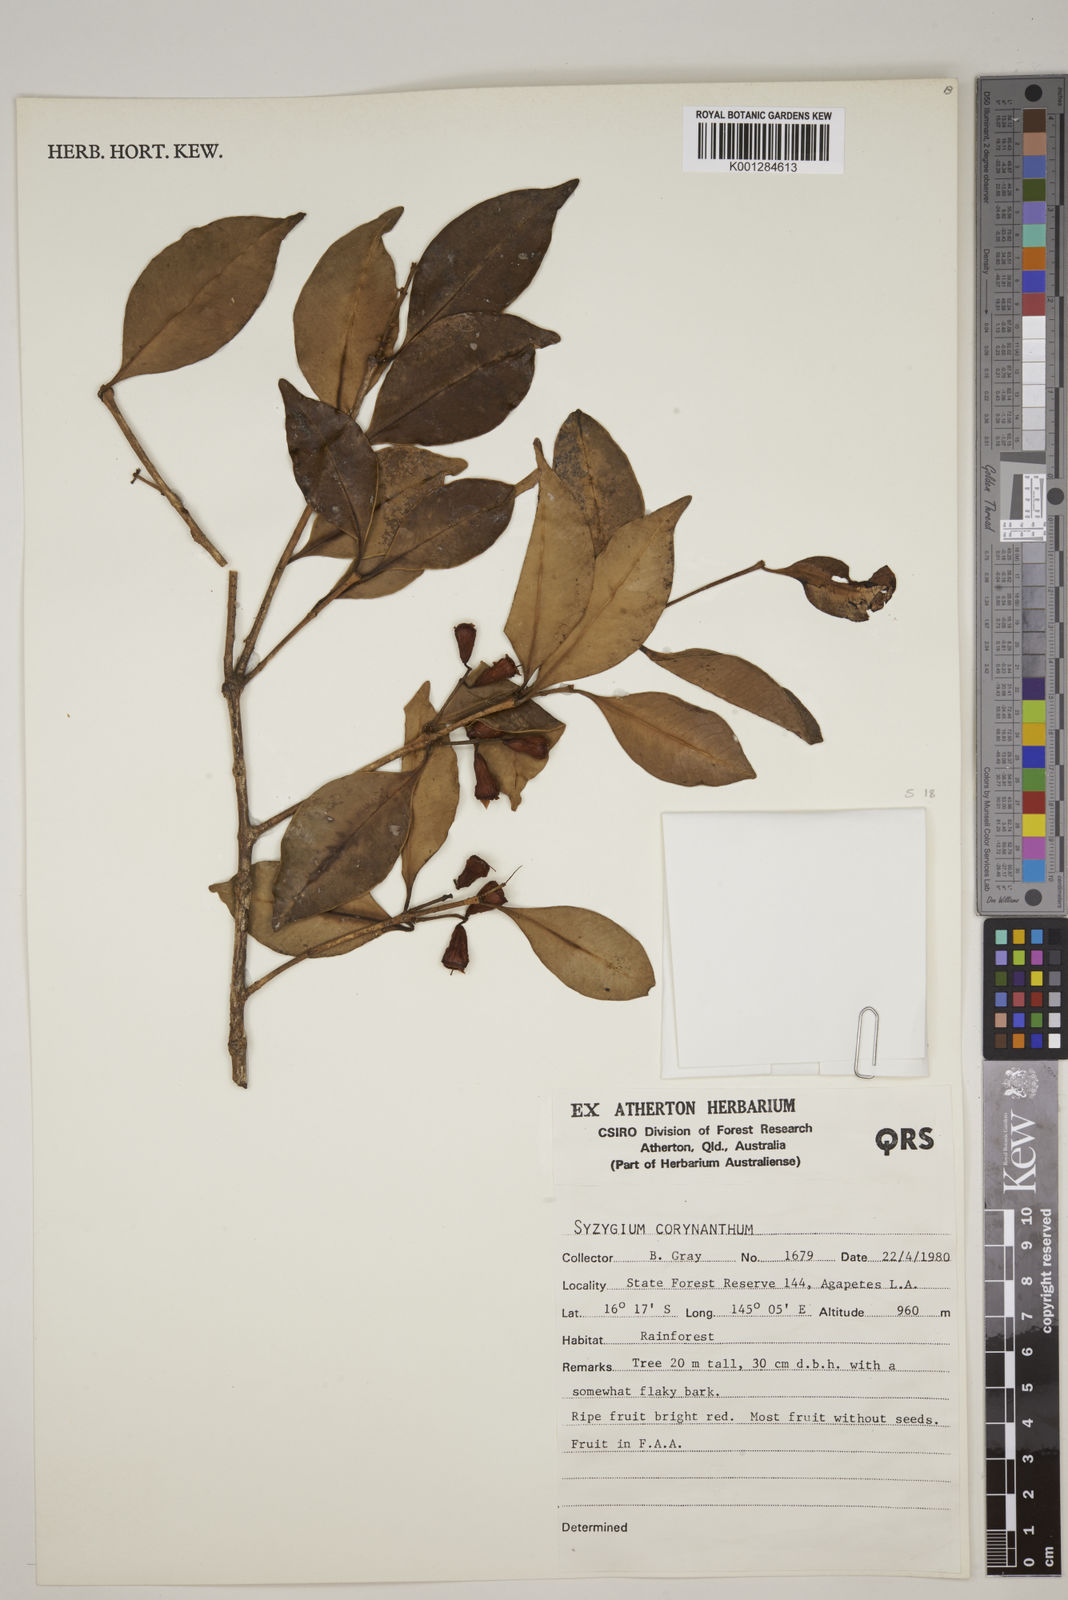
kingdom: Plantae
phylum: Tracheophyta
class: Magnoliopsida
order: Myrtales
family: Myrtaceae
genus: Syzygium
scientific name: Syzygium corynanthum
